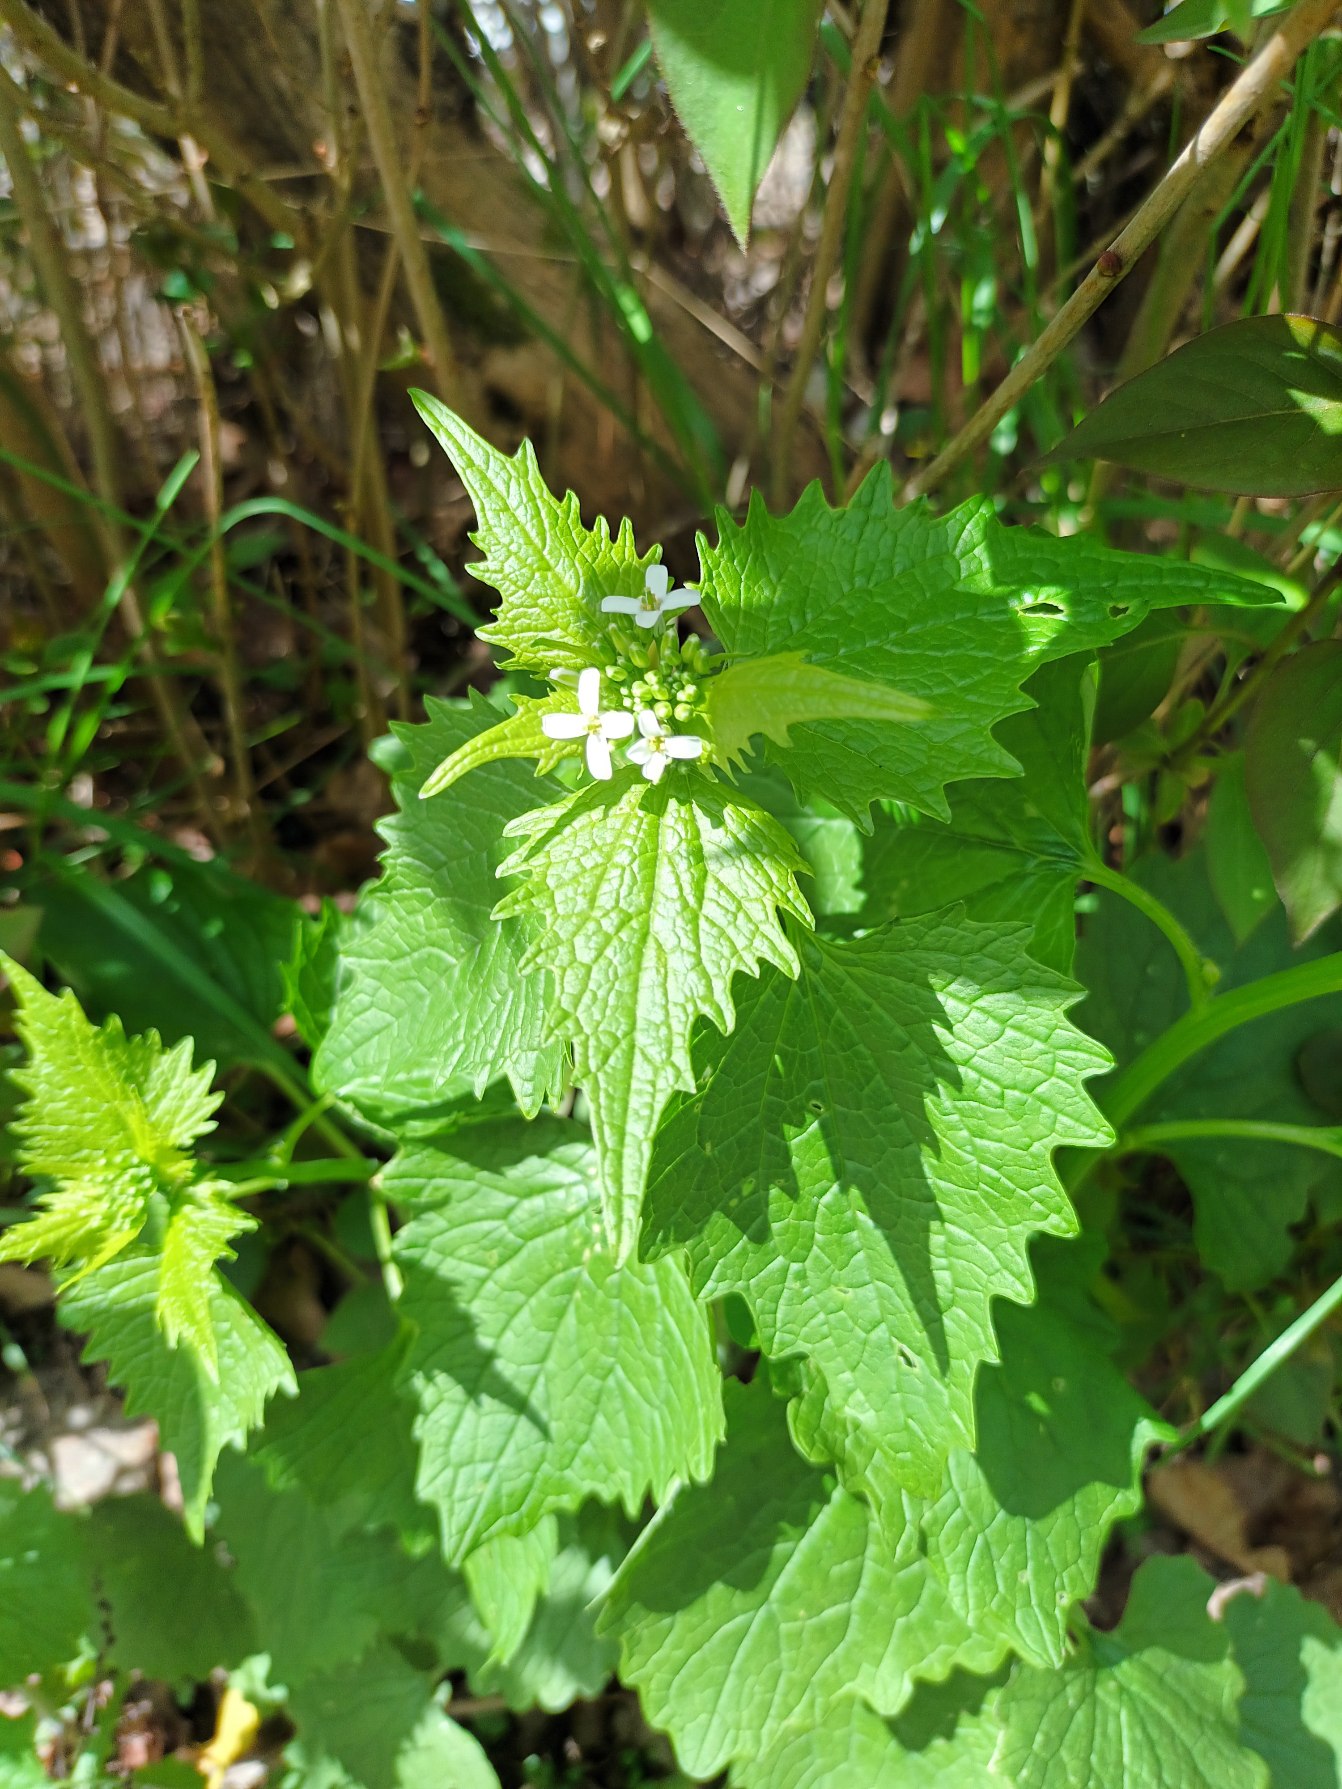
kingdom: Plantae
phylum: Tracheophyta
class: Magnoliopsida
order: Brassicales
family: Brassicaceae
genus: Alliaria
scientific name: Alliaria petiolata
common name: Løgkarse
